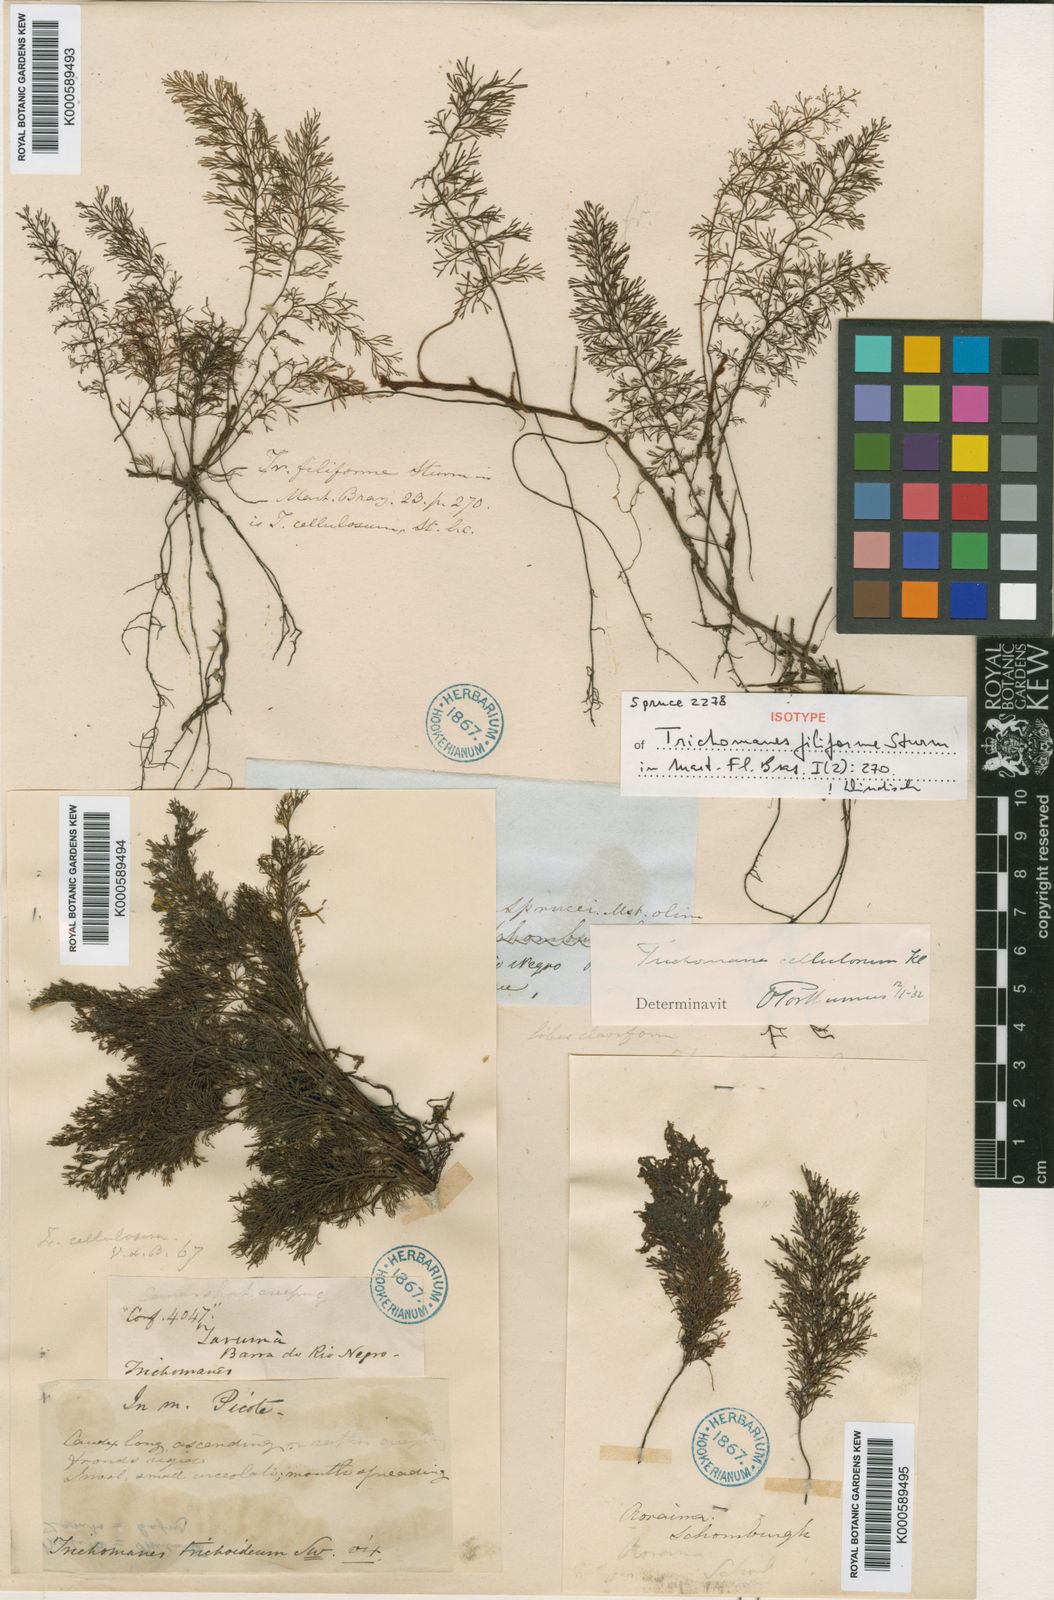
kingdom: Plantae
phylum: Tracheophyta
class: Polypodiopsida
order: Hymenophyllales
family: Hymenophyllaceae
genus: Abrodictyum
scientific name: Abrodictyum cellulosum
